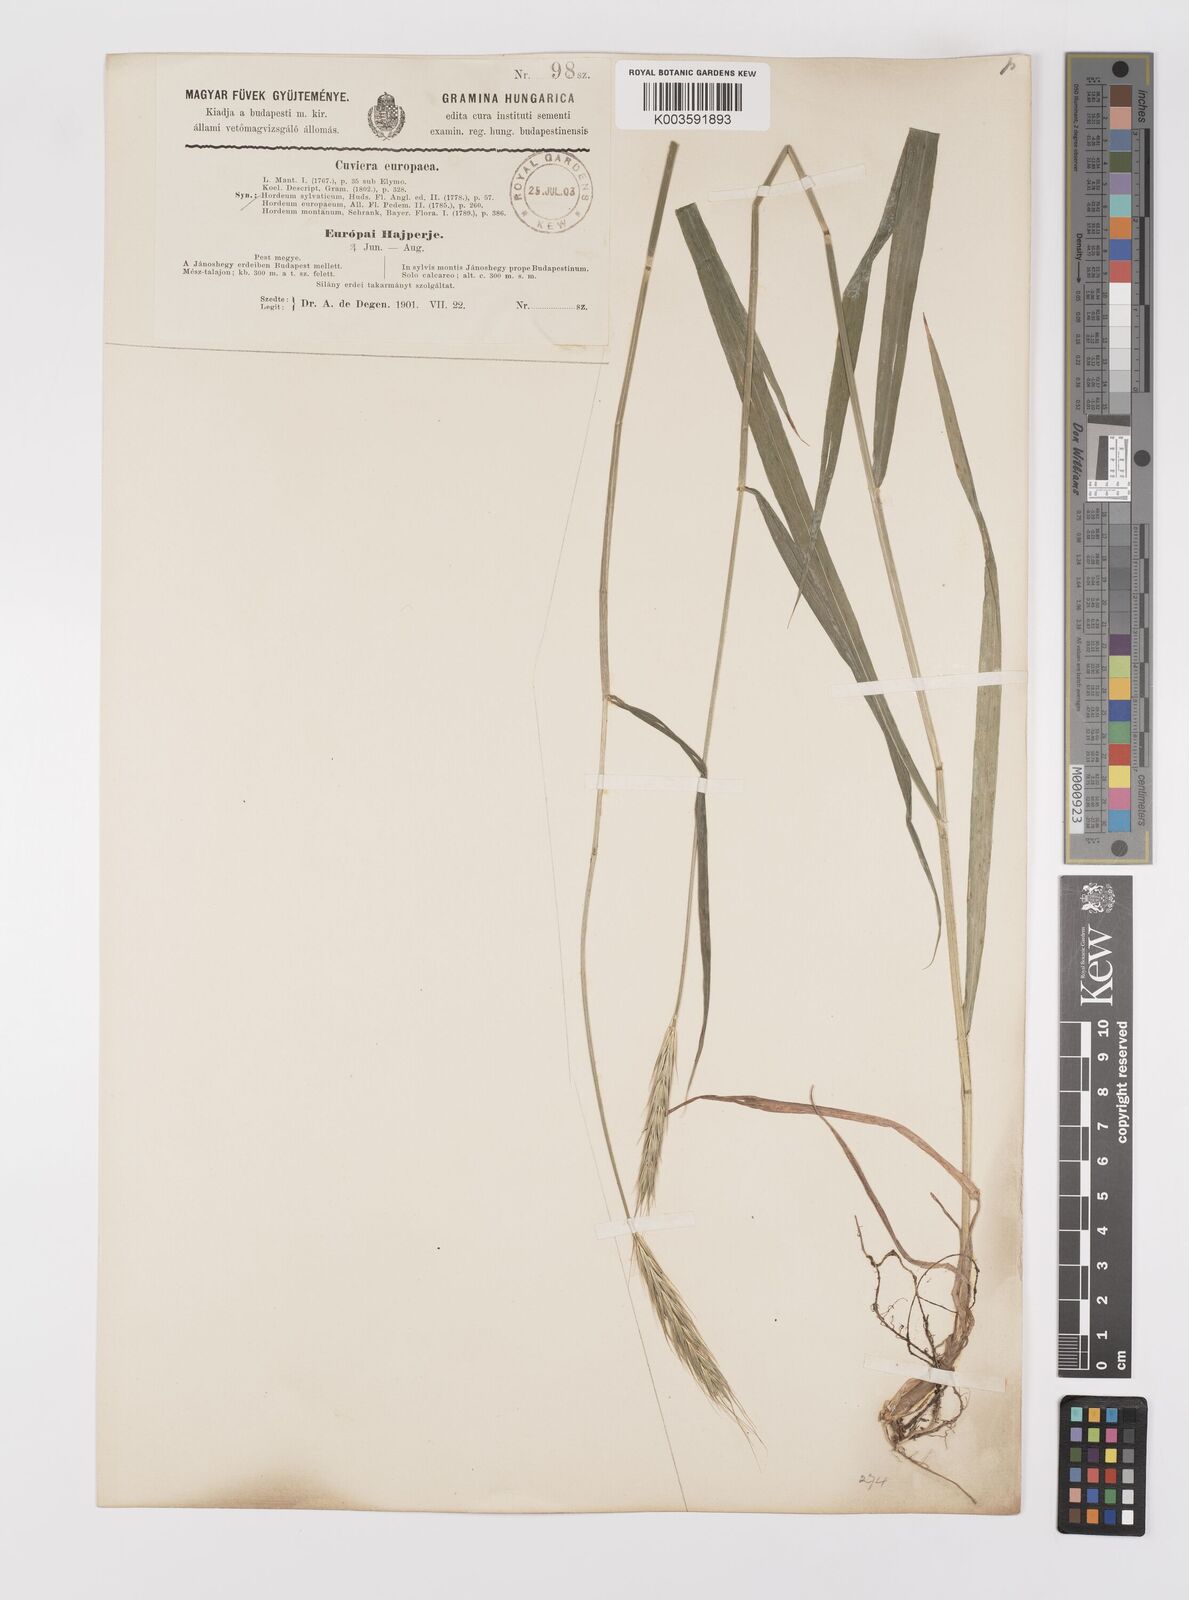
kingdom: Plantae
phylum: Tracheophyta
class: Liliopsida
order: Poales
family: Poaceae
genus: Hordelymus
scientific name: Hordelymus europaeus
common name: Wood-barley
